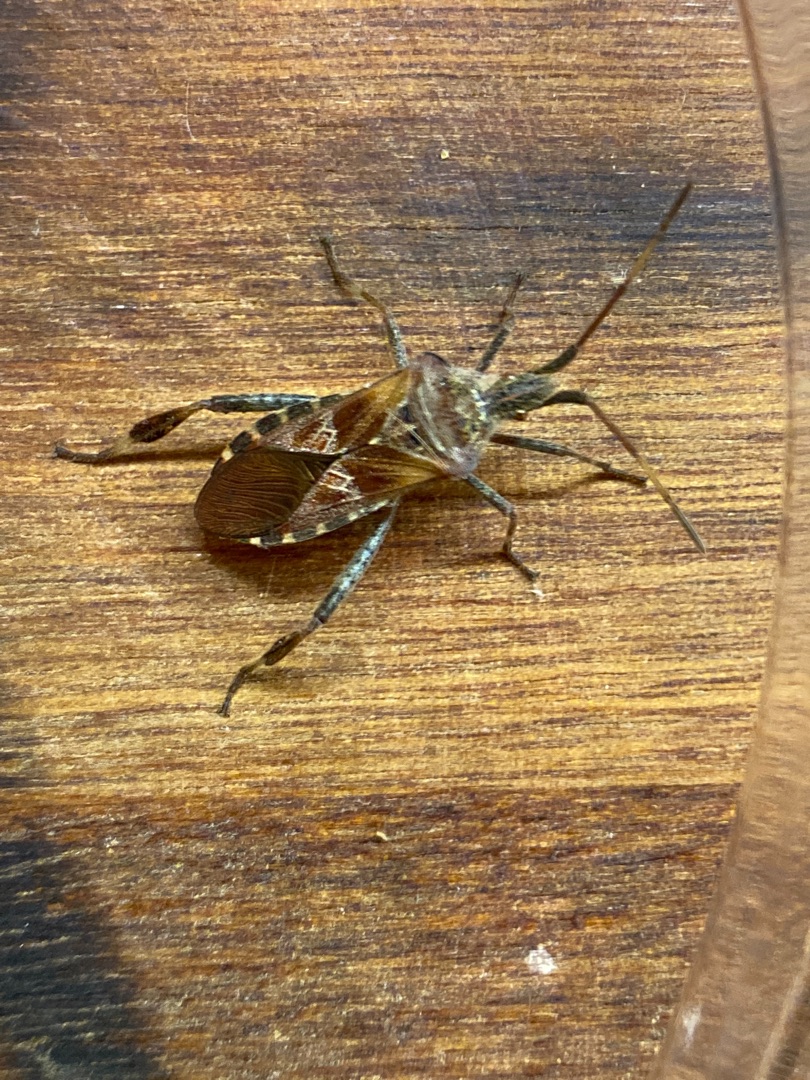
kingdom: Animalia
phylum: Arthropoda
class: Insecta
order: Hemiptera
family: Coreidae
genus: Leptoglossus
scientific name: Leptoglossus occidentalis
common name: Amerikansk fyrretæge
